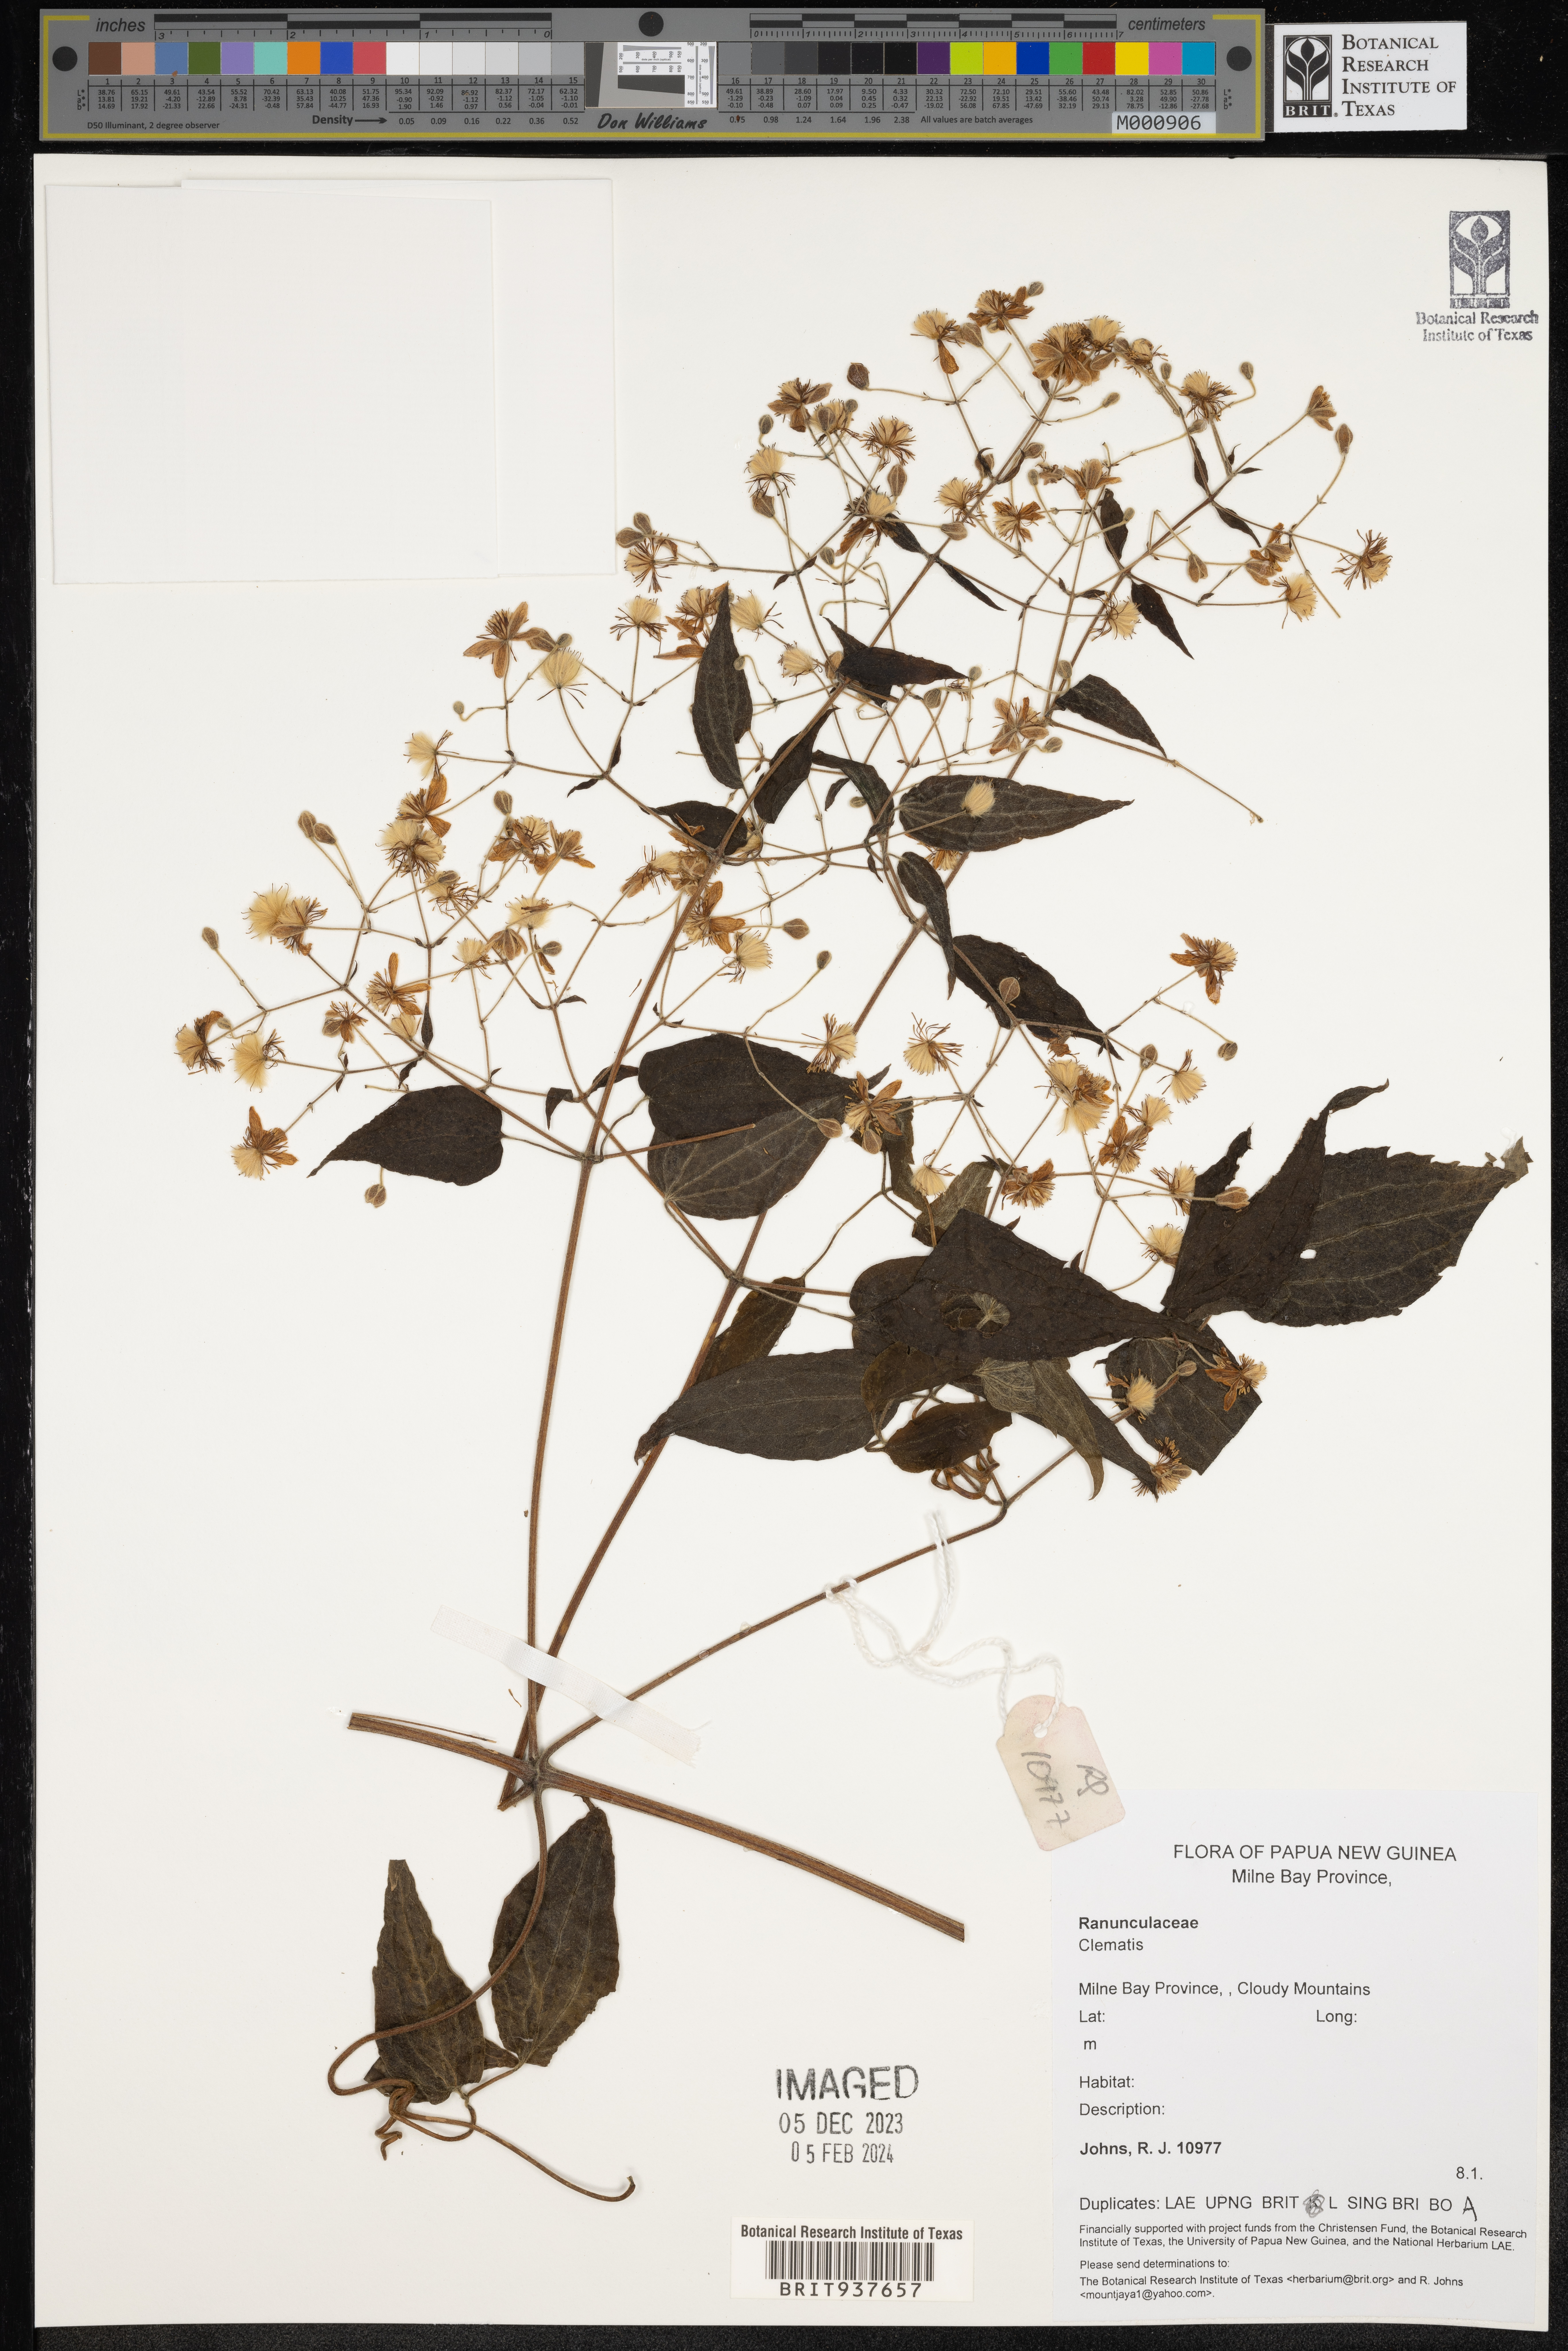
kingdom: Plantae
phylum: Tracheophyta
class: Magnoliopsida
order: Ranunculales
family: Ranunculaceae
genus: Clematis
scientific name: Clematis
